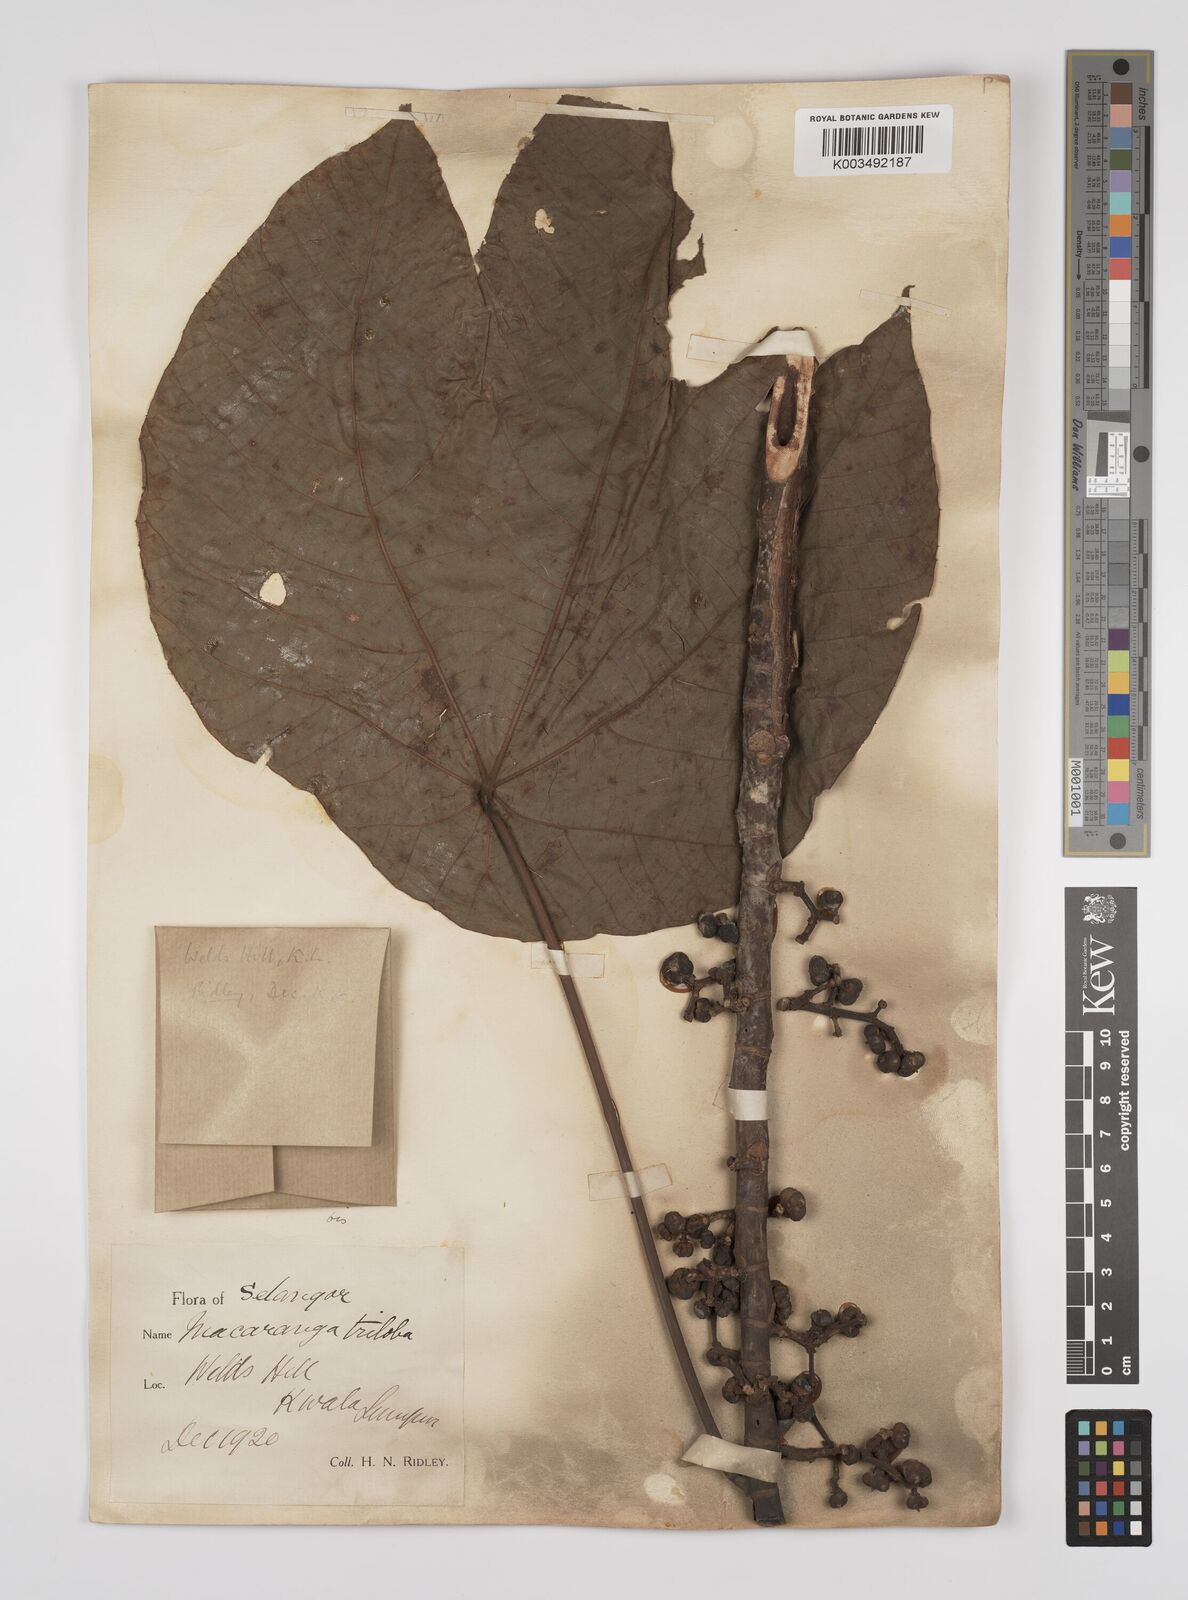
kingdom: Plantae
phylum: Tracheophyta
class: Magnoliopsida
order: Malpighiales
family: Euphorbiaceae
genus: Macaranga
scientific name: Macaranga triloba
